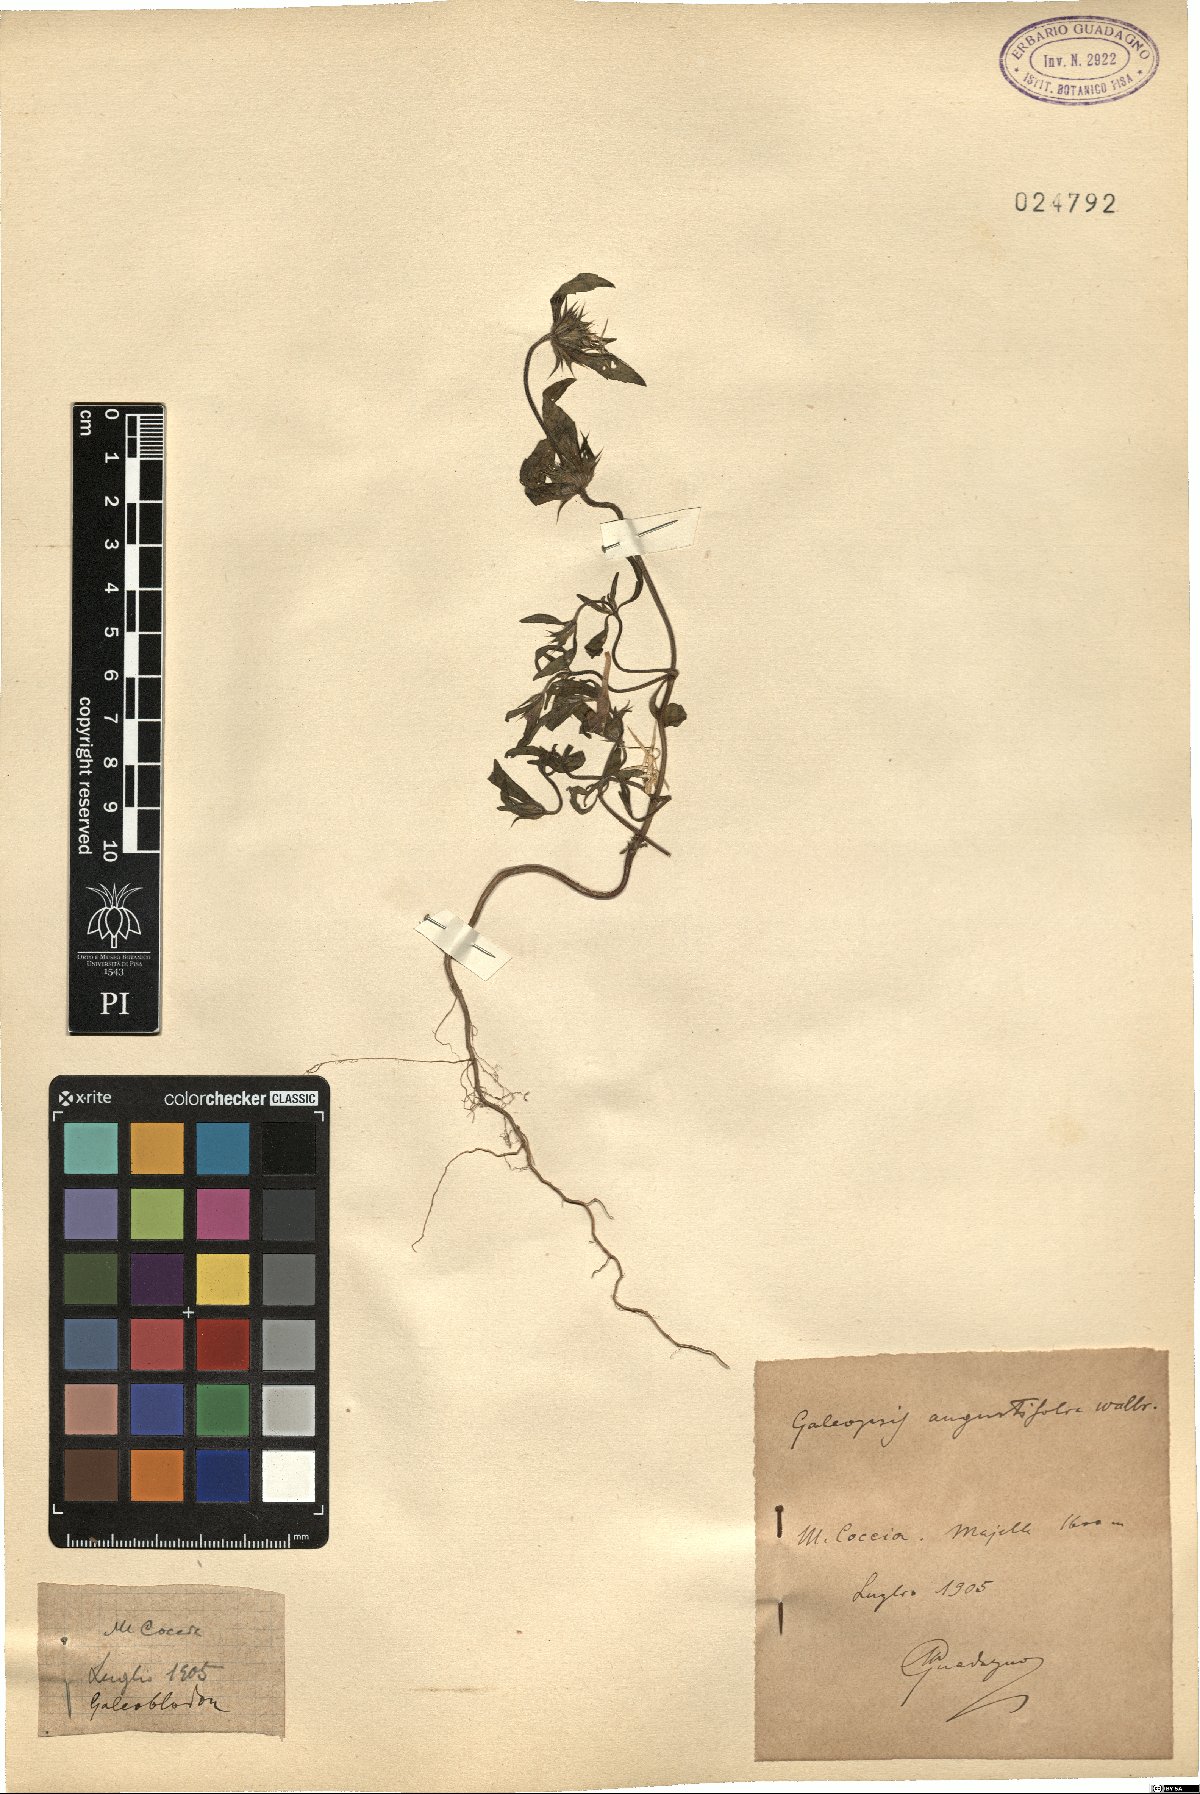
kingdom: Plantae
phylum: Tracheophyta
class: Magnoliopsida
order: Lamiales
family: Lamiaceae
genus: Galeopsis
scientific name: Galeopsis angustifolia
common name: Red hemp-nettle
